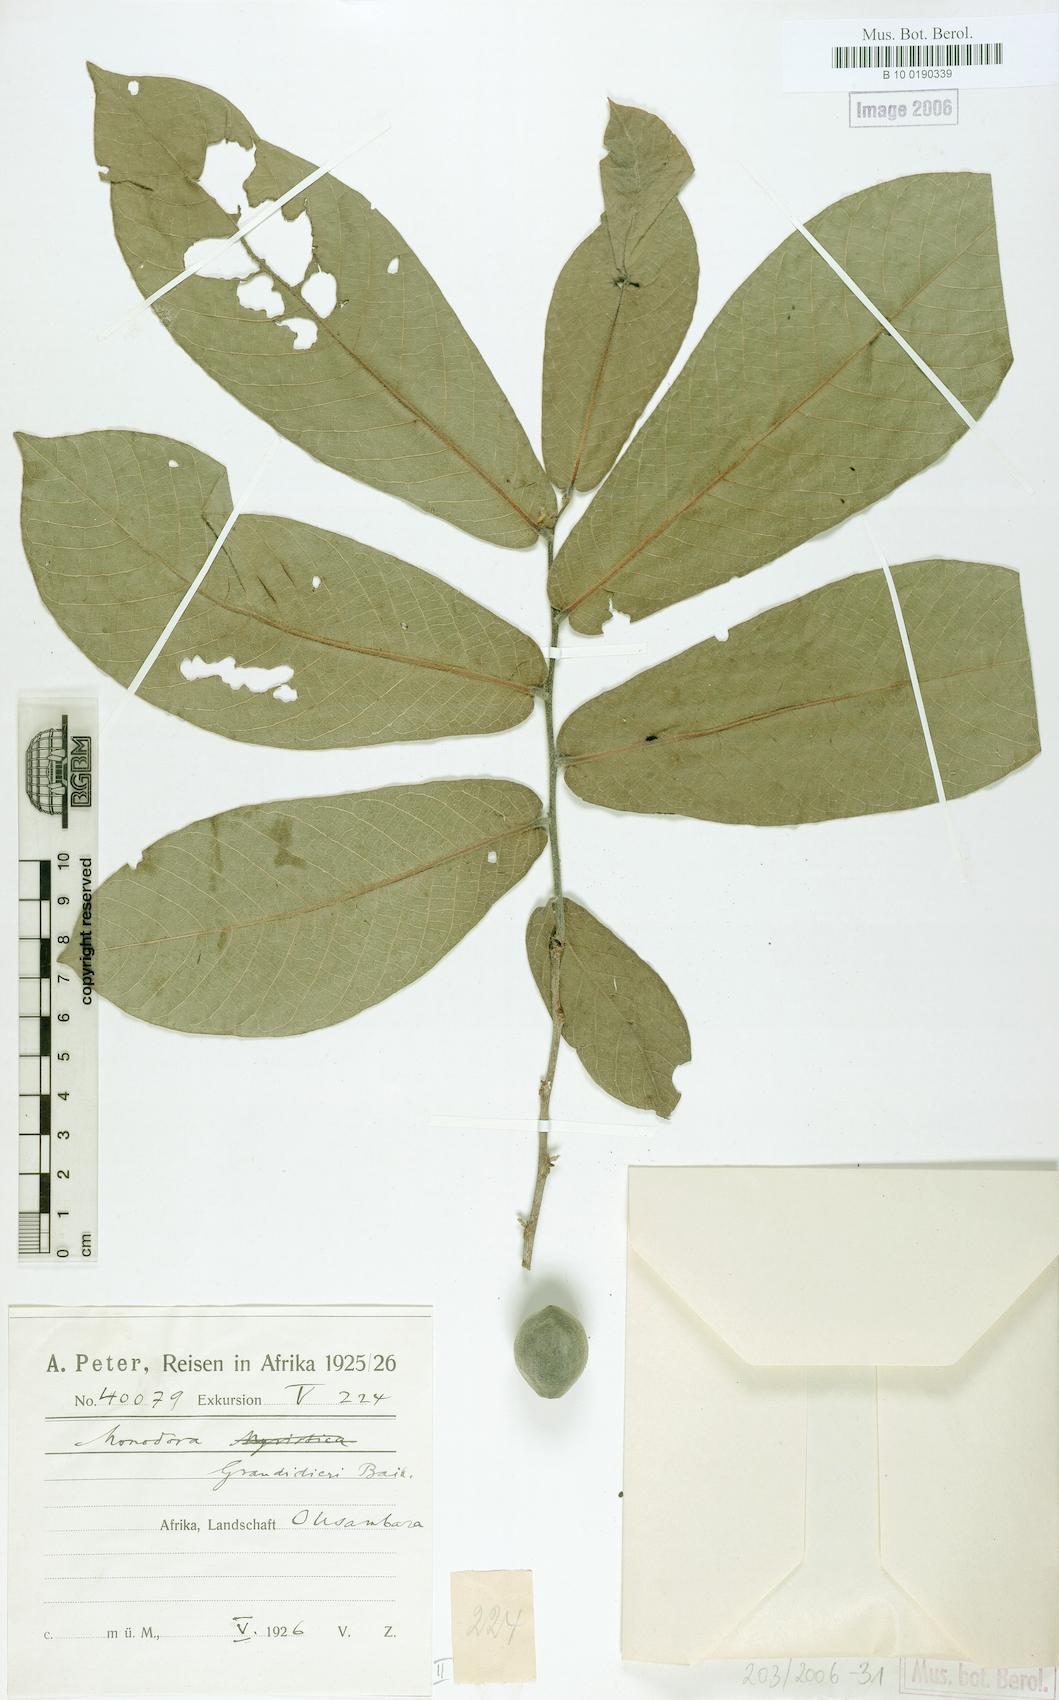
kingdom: Plantae
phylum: Tracheophyta
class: Magnoliopsida
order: Magnoliales
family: Annonaceae
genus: Monodora
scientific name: Monodora grandidieri
